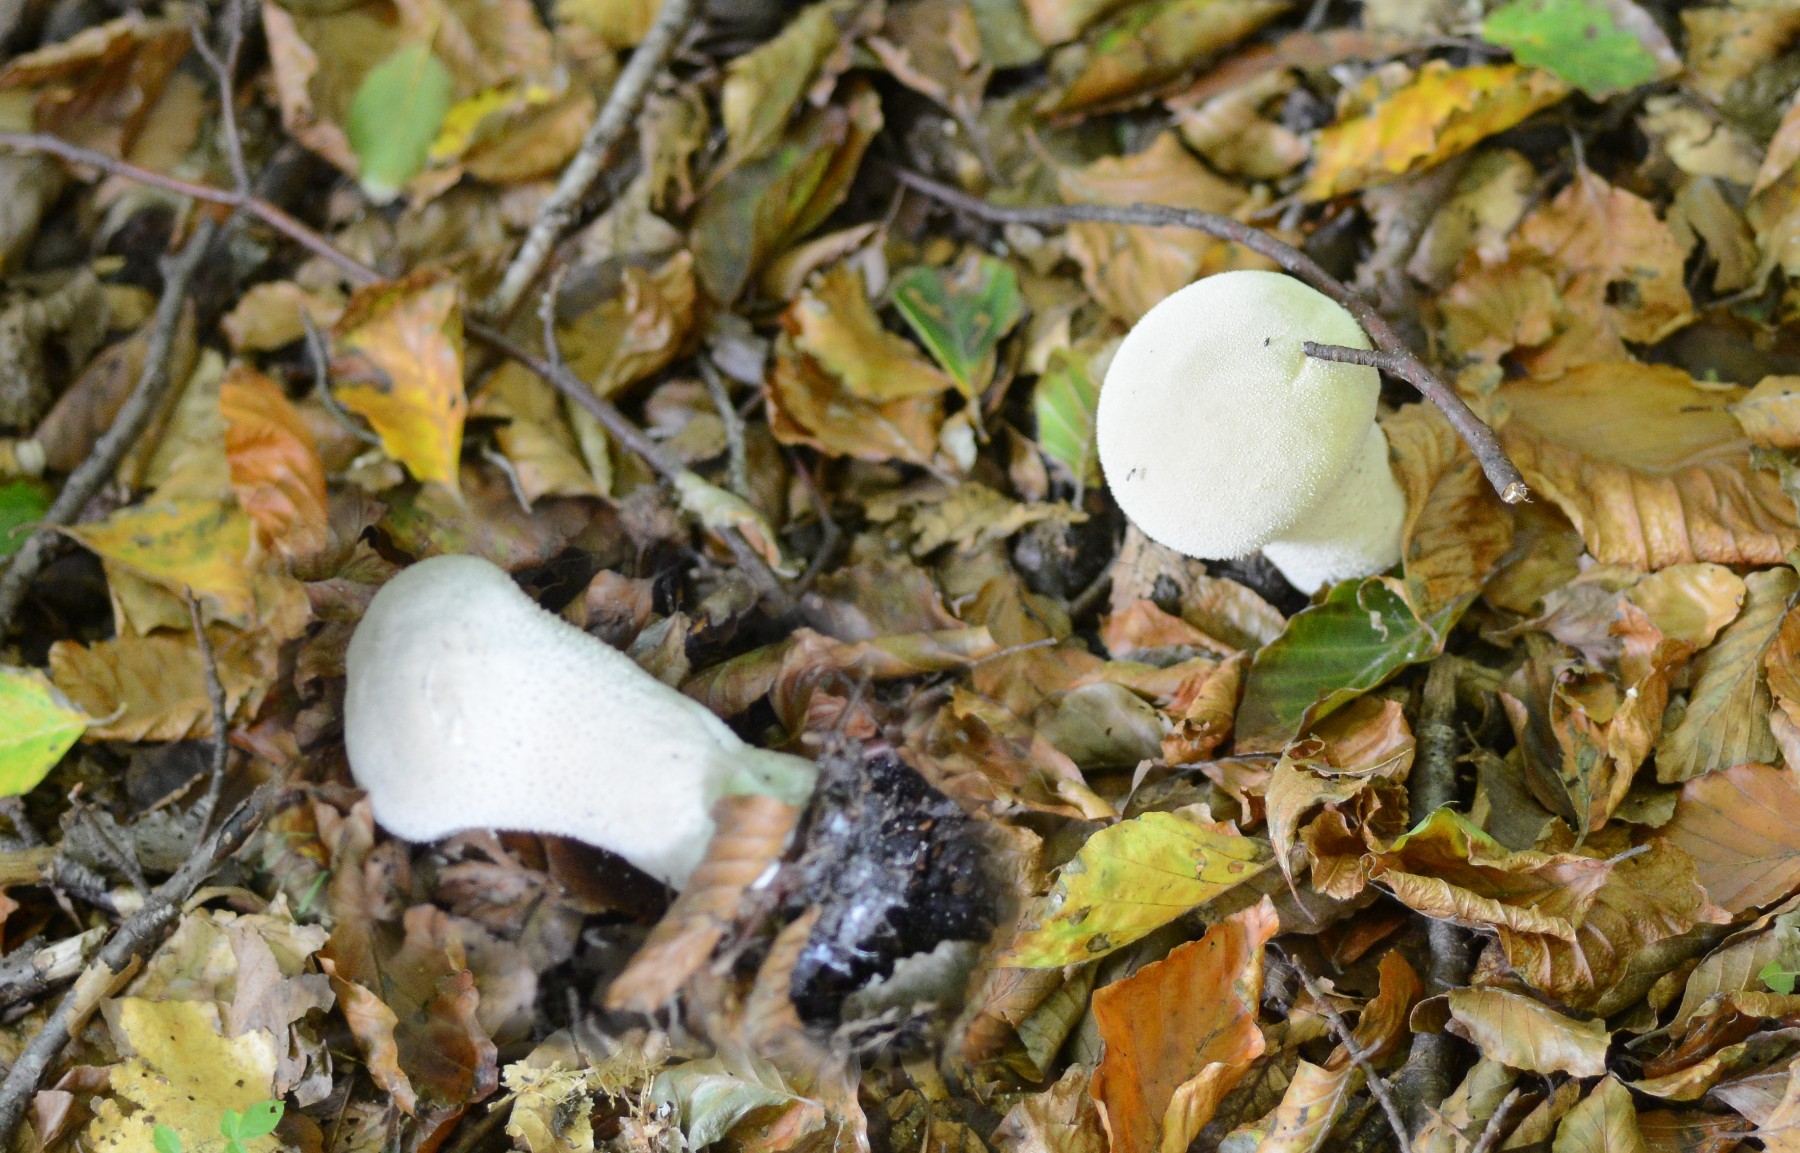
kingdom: Fungi
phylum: Basidiomycota
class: Agaricomycetes
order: Agaricales
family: Lycoperdaceae
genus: Lycoperdon
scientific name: Lycoperdon excipuliforme
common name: højstokket støvbold
